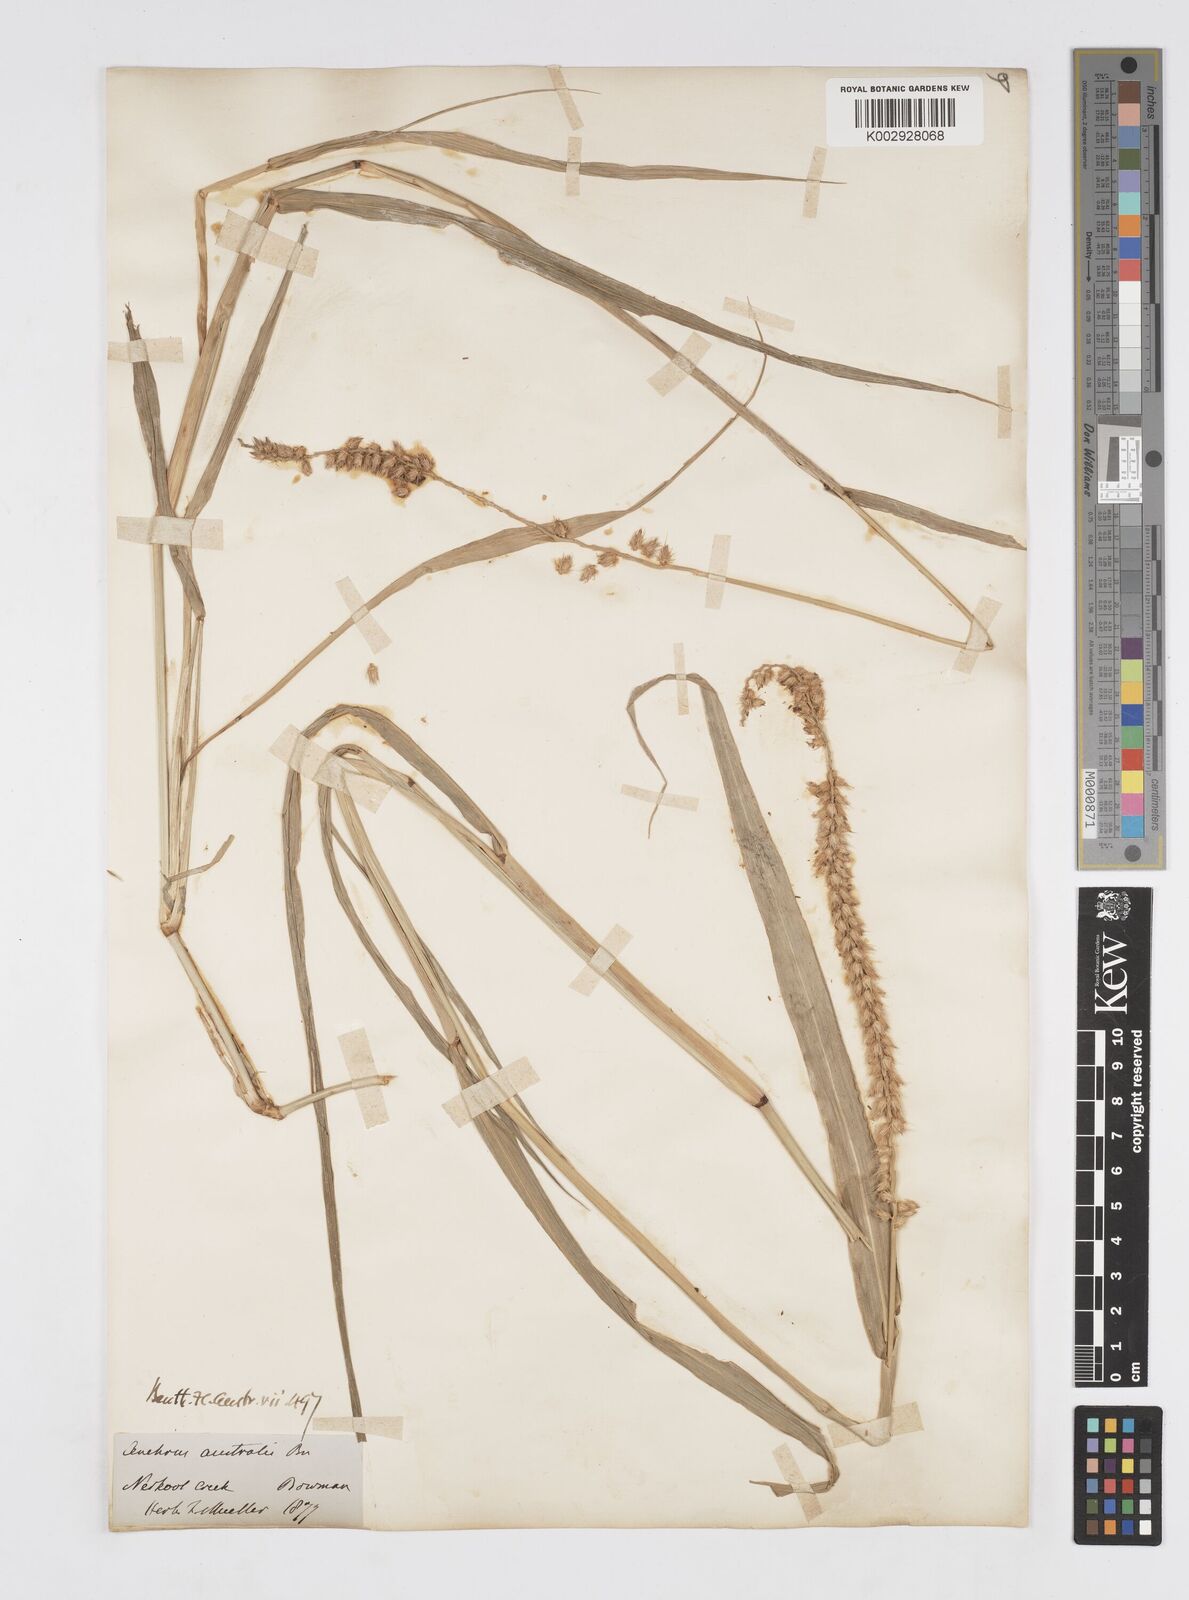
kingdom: Plantae
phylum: Tracheophyta
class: Liliopsida
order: Poales
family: Poaceae
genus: Cenchrus
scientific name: Cenchrus caliculatus
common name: Large bur grass
